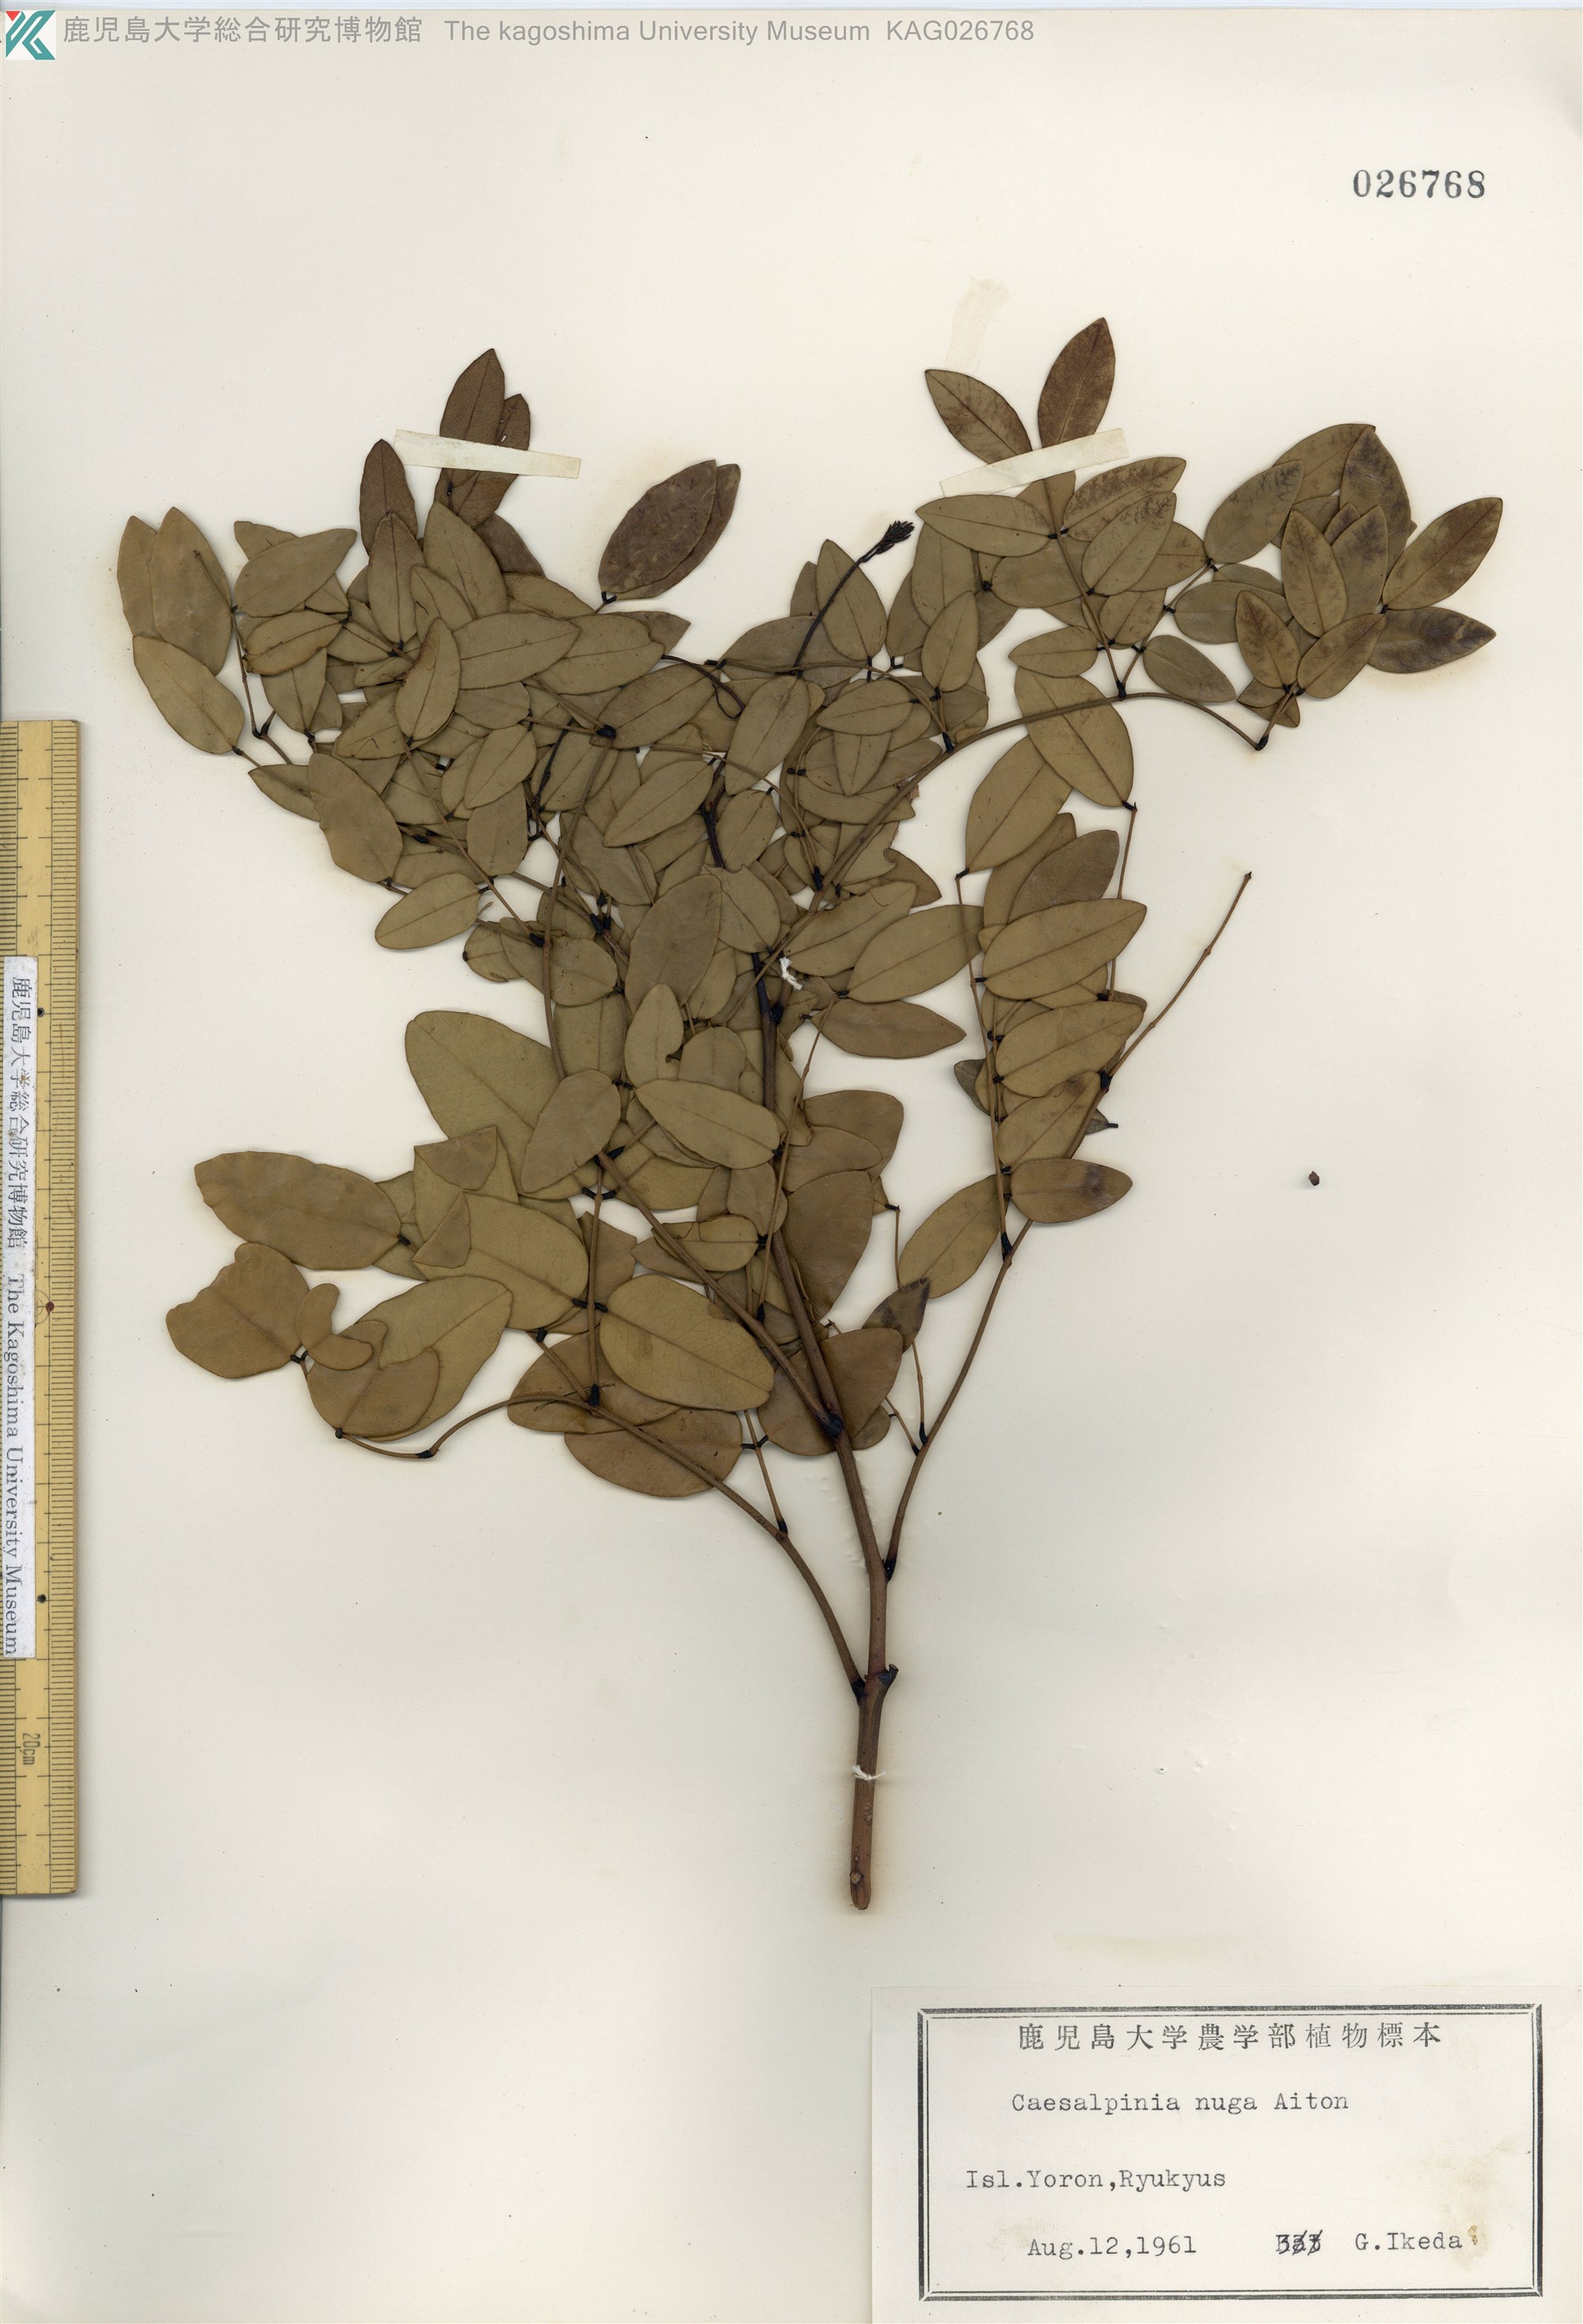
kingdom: Plantae
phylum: Tracheophyta
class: Magnoliopsida
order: Fabales
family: Fabaceae
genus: Caesalpinia
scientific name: Caesalpinia Ticanto crista
